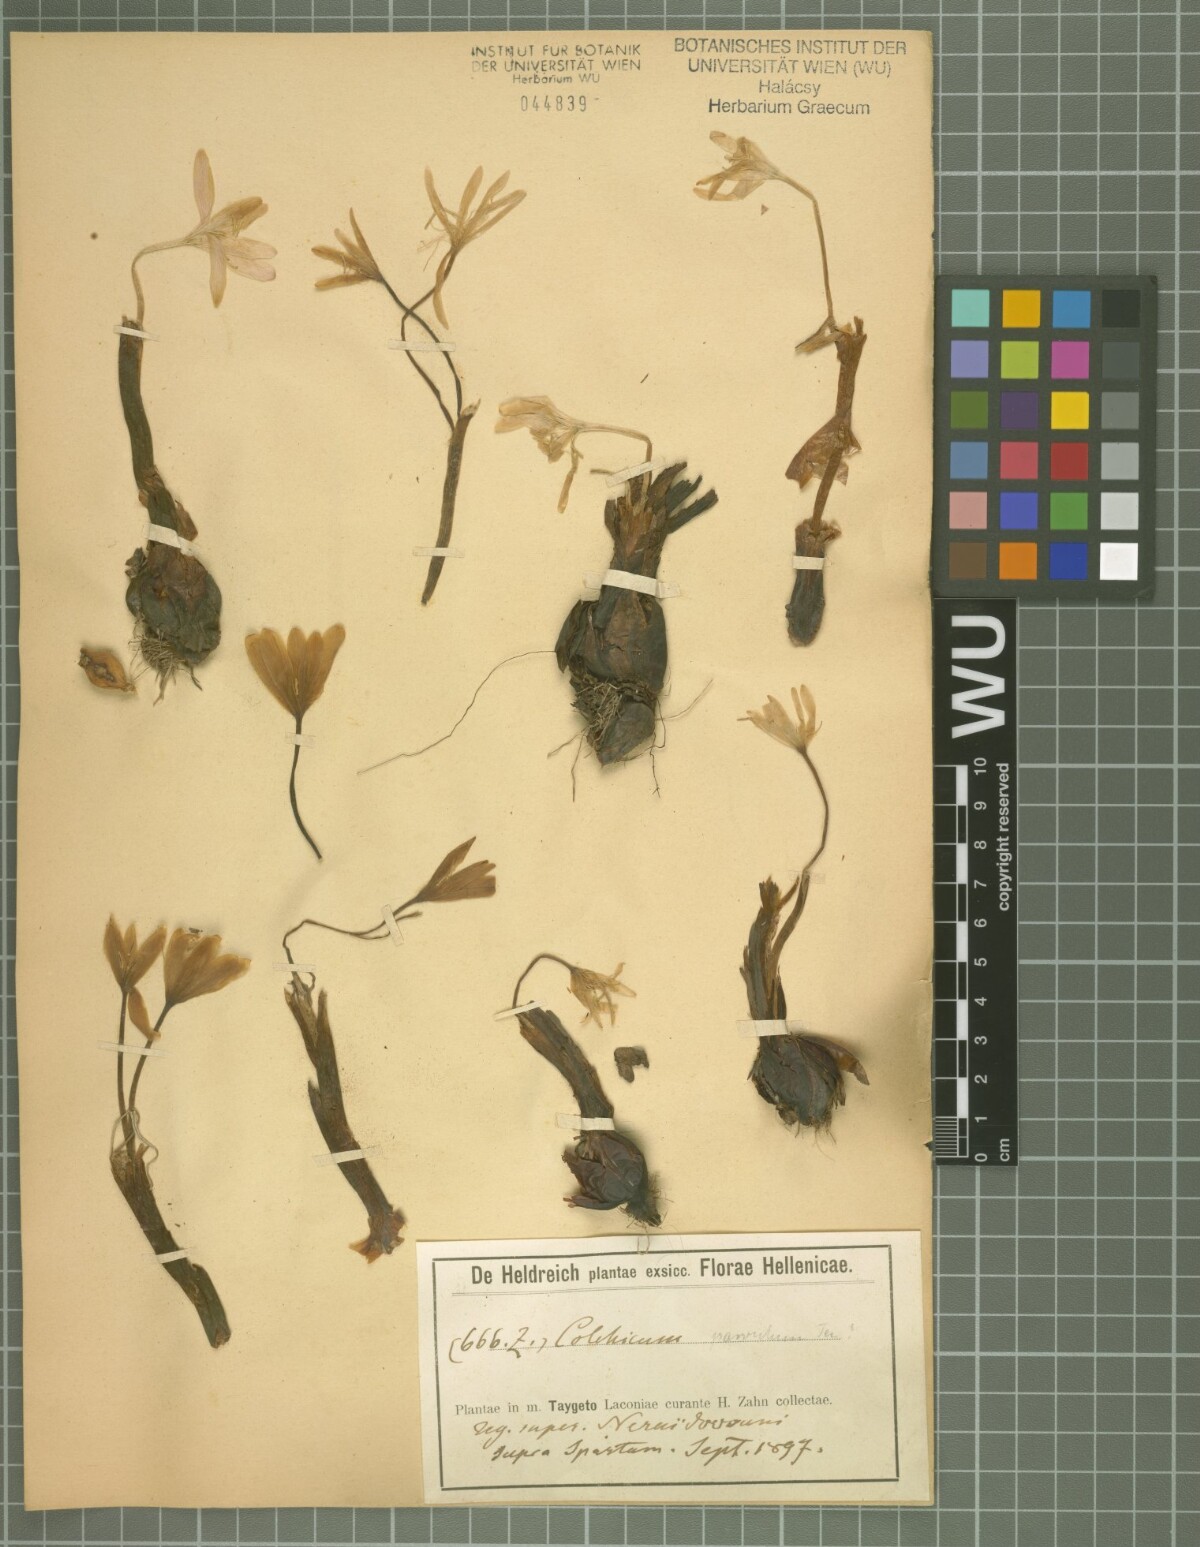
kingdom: Plantae
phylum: Tracheophyta
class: Liliopsida
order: Liliales
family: Colchicaceae
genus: Colchicum
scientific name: Colchicum parlatoris
